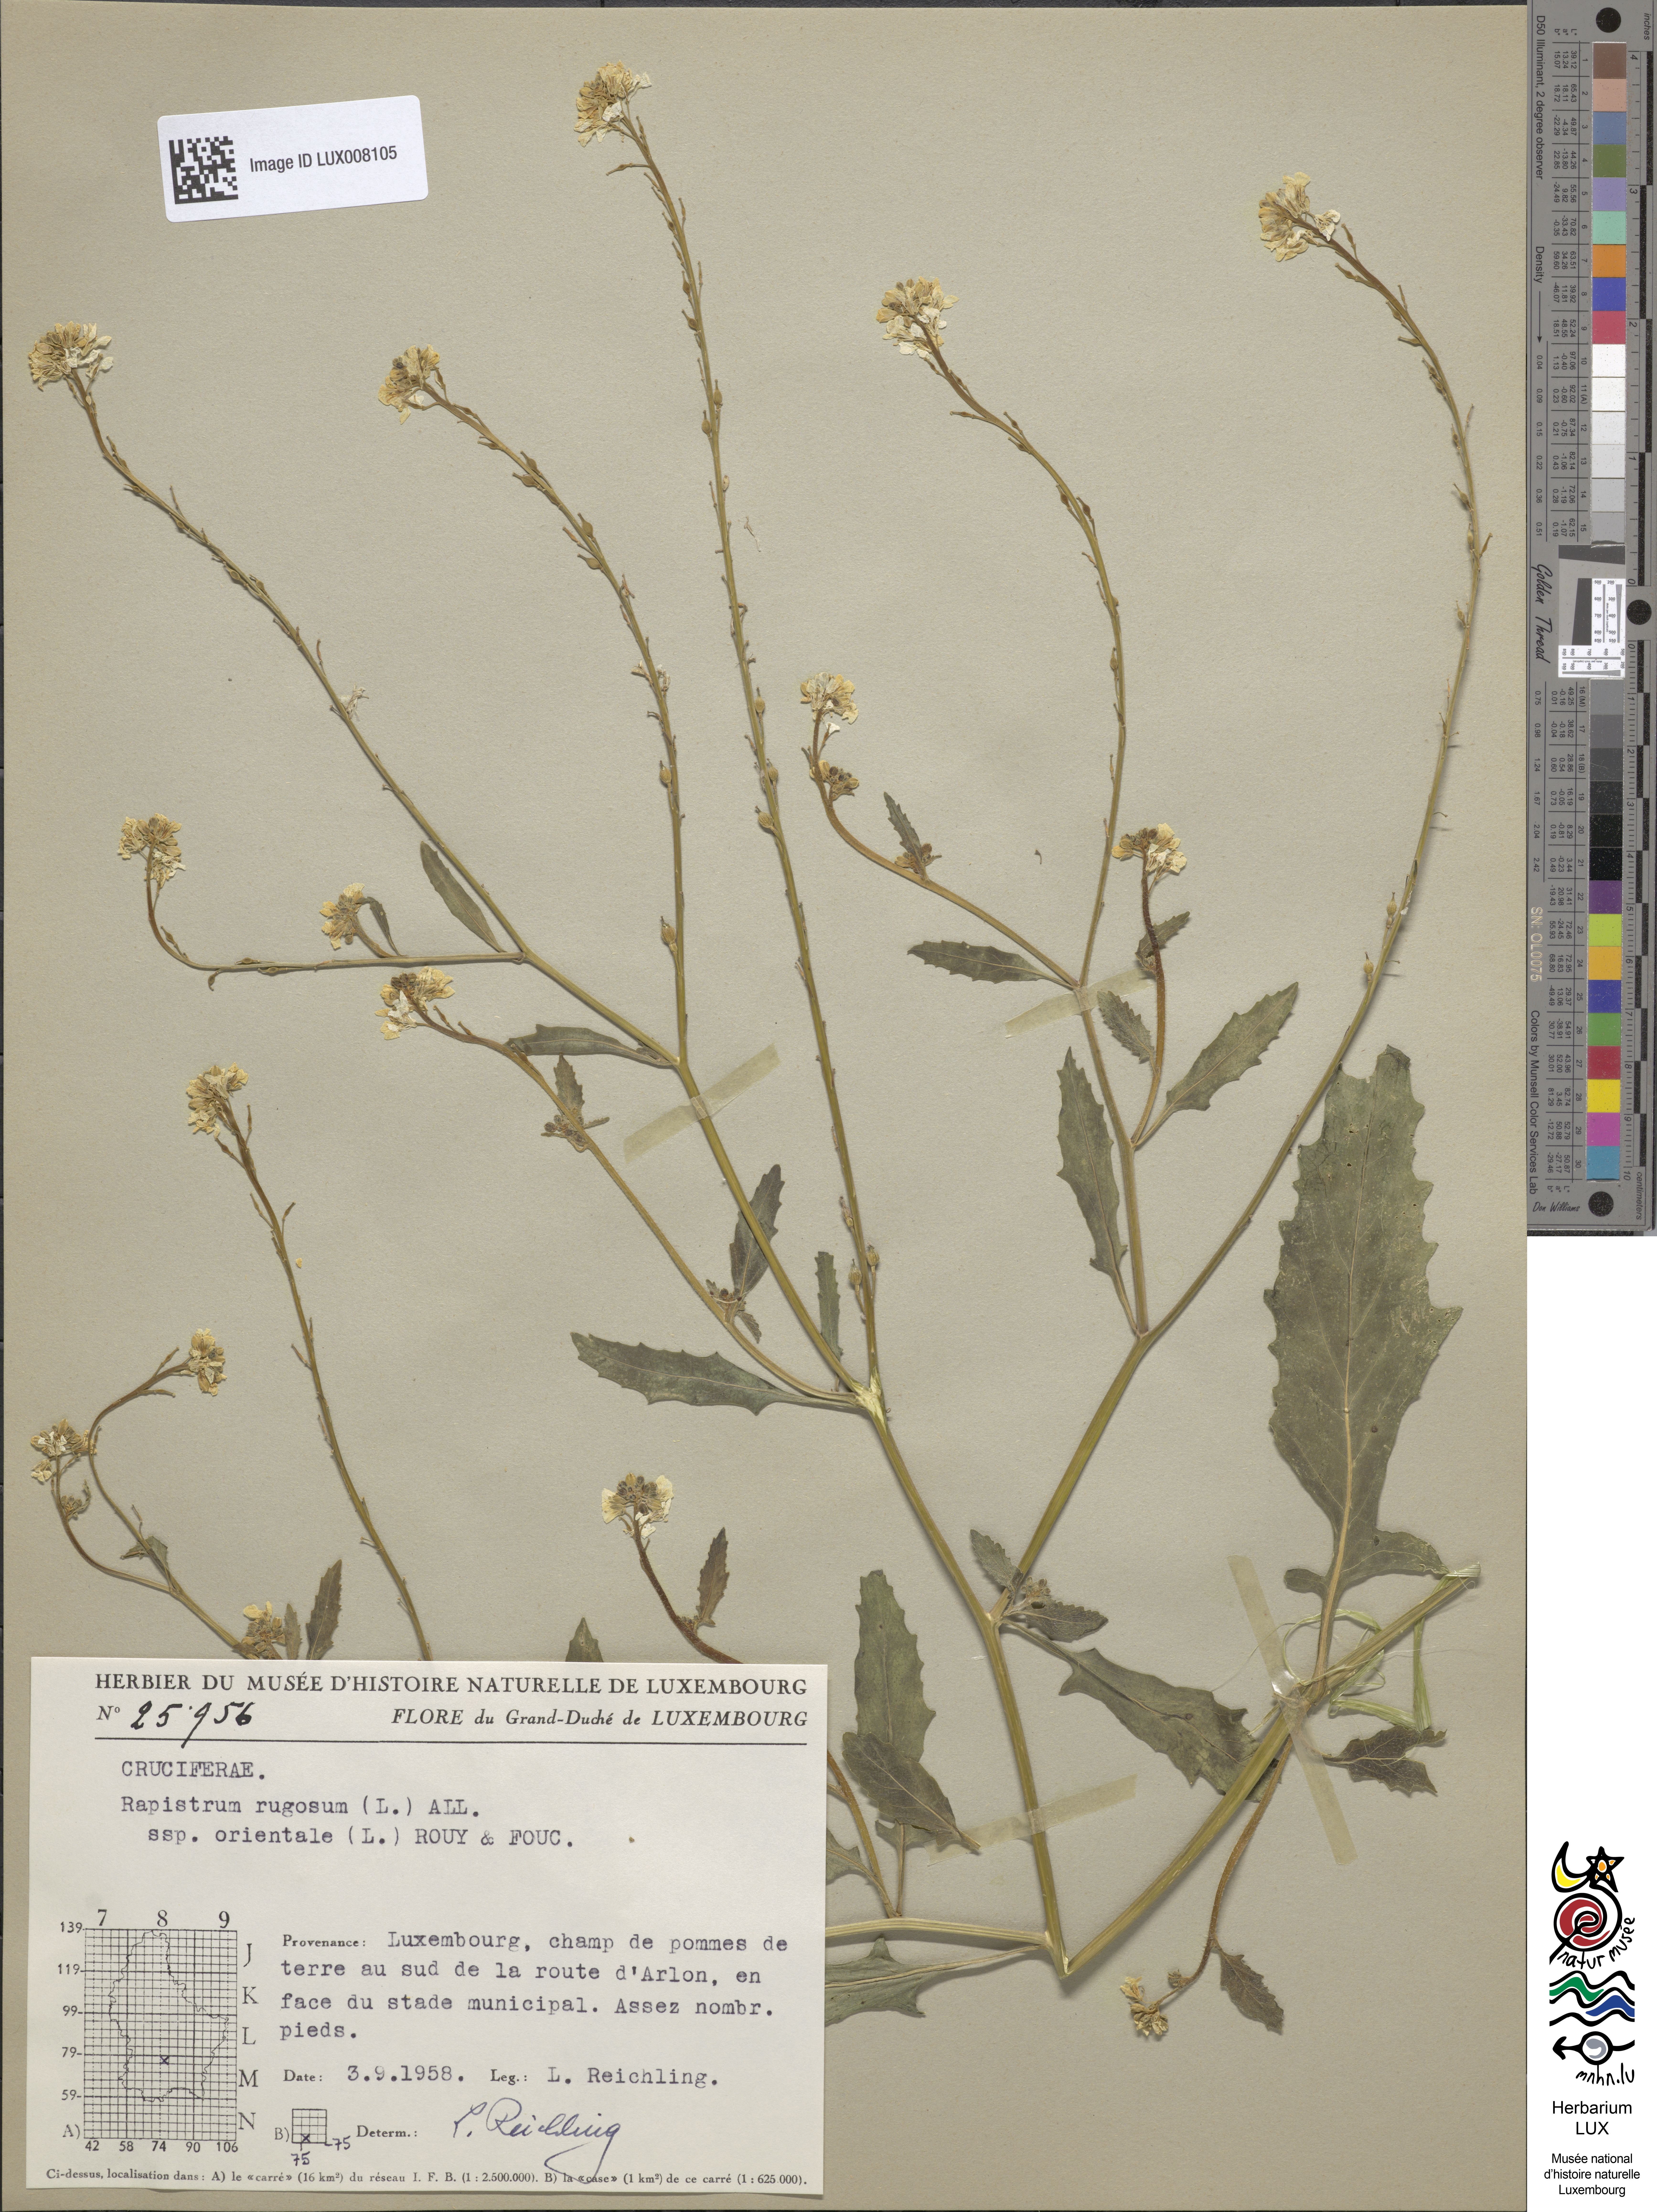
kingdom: Plantae
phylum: Tracheophyta
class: Magnoliopsida
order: Brassicales
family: Brassicaceae
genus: Rapistrum
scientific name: Rapistrum rugosum
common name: Annual bastardcabbage
